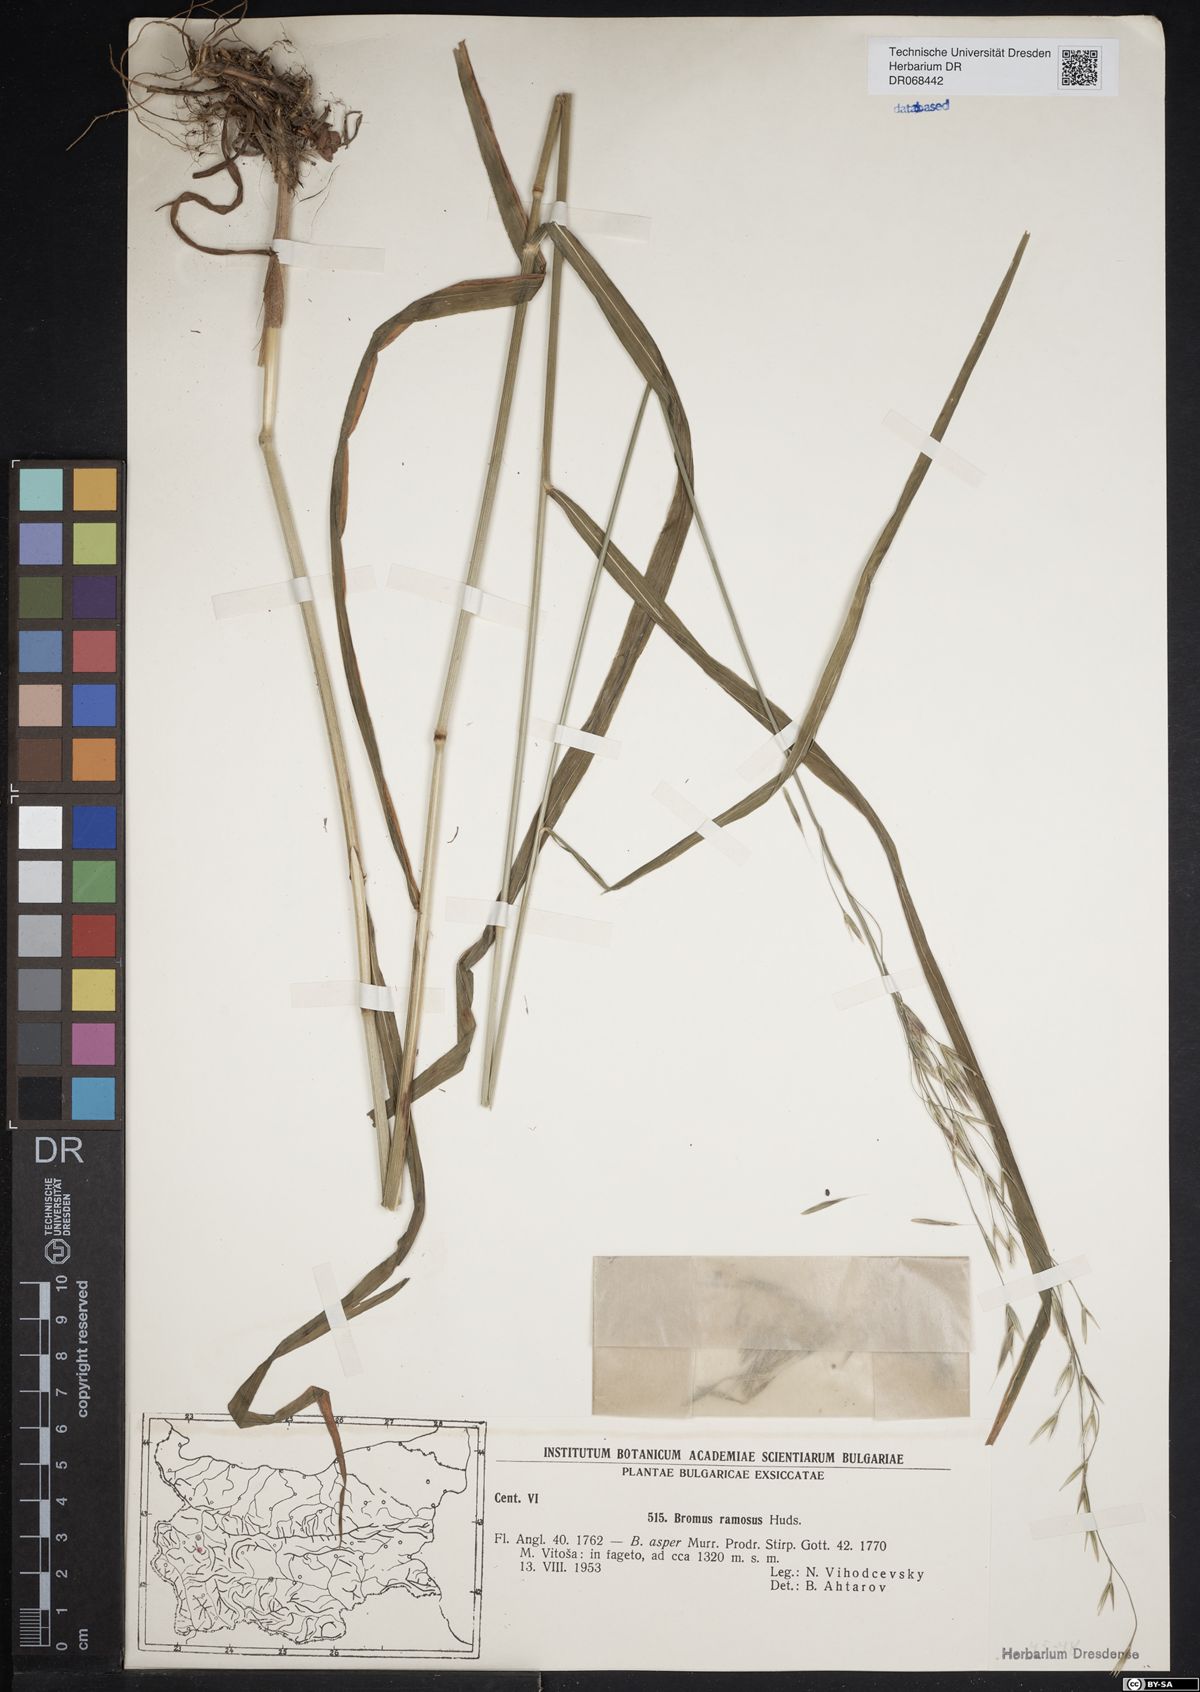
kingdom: Plantae
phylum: Tracheophyta
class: Liliopsida
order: Poales
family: Poaceae
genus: Bromus
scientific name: Bromus ramosus
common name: Hairy brome
